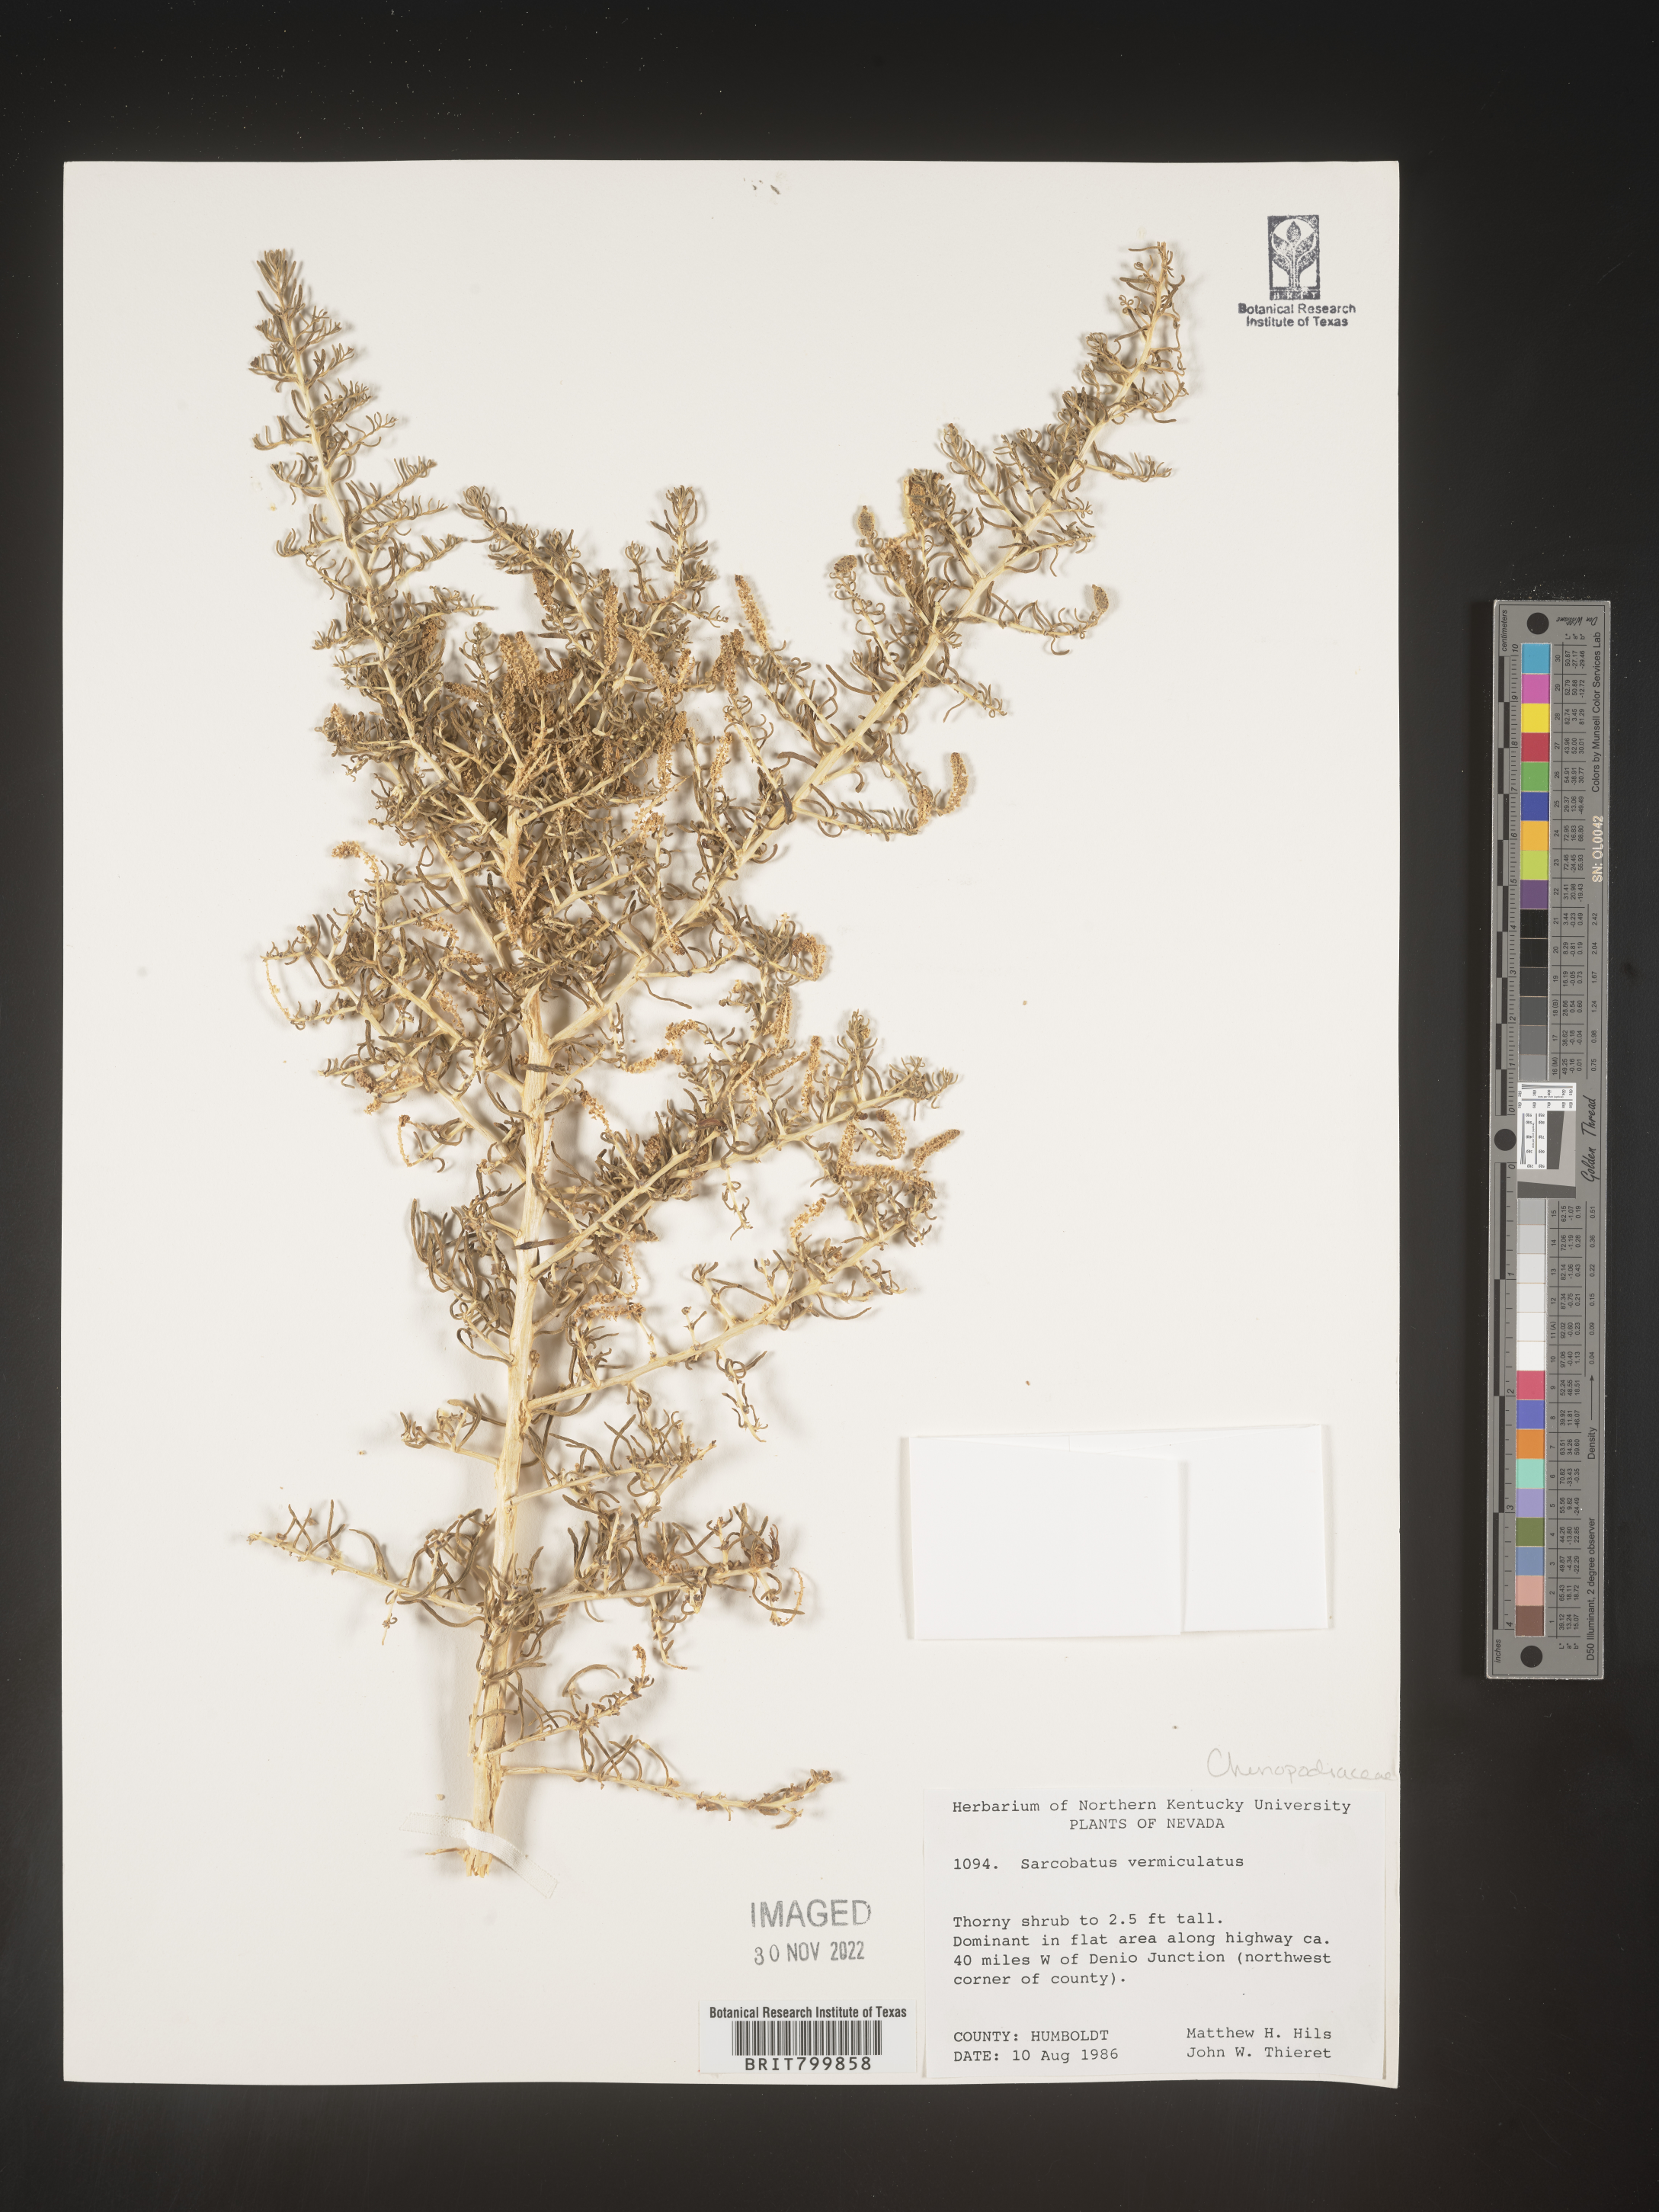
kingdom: Plantae
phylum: Tracheophyta
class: Magnoliopsida
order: Caryophyllales
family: Sarcobataceae
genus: Sarcobatus
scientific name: Sarcobatus vermiculatus
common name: Greasewood
